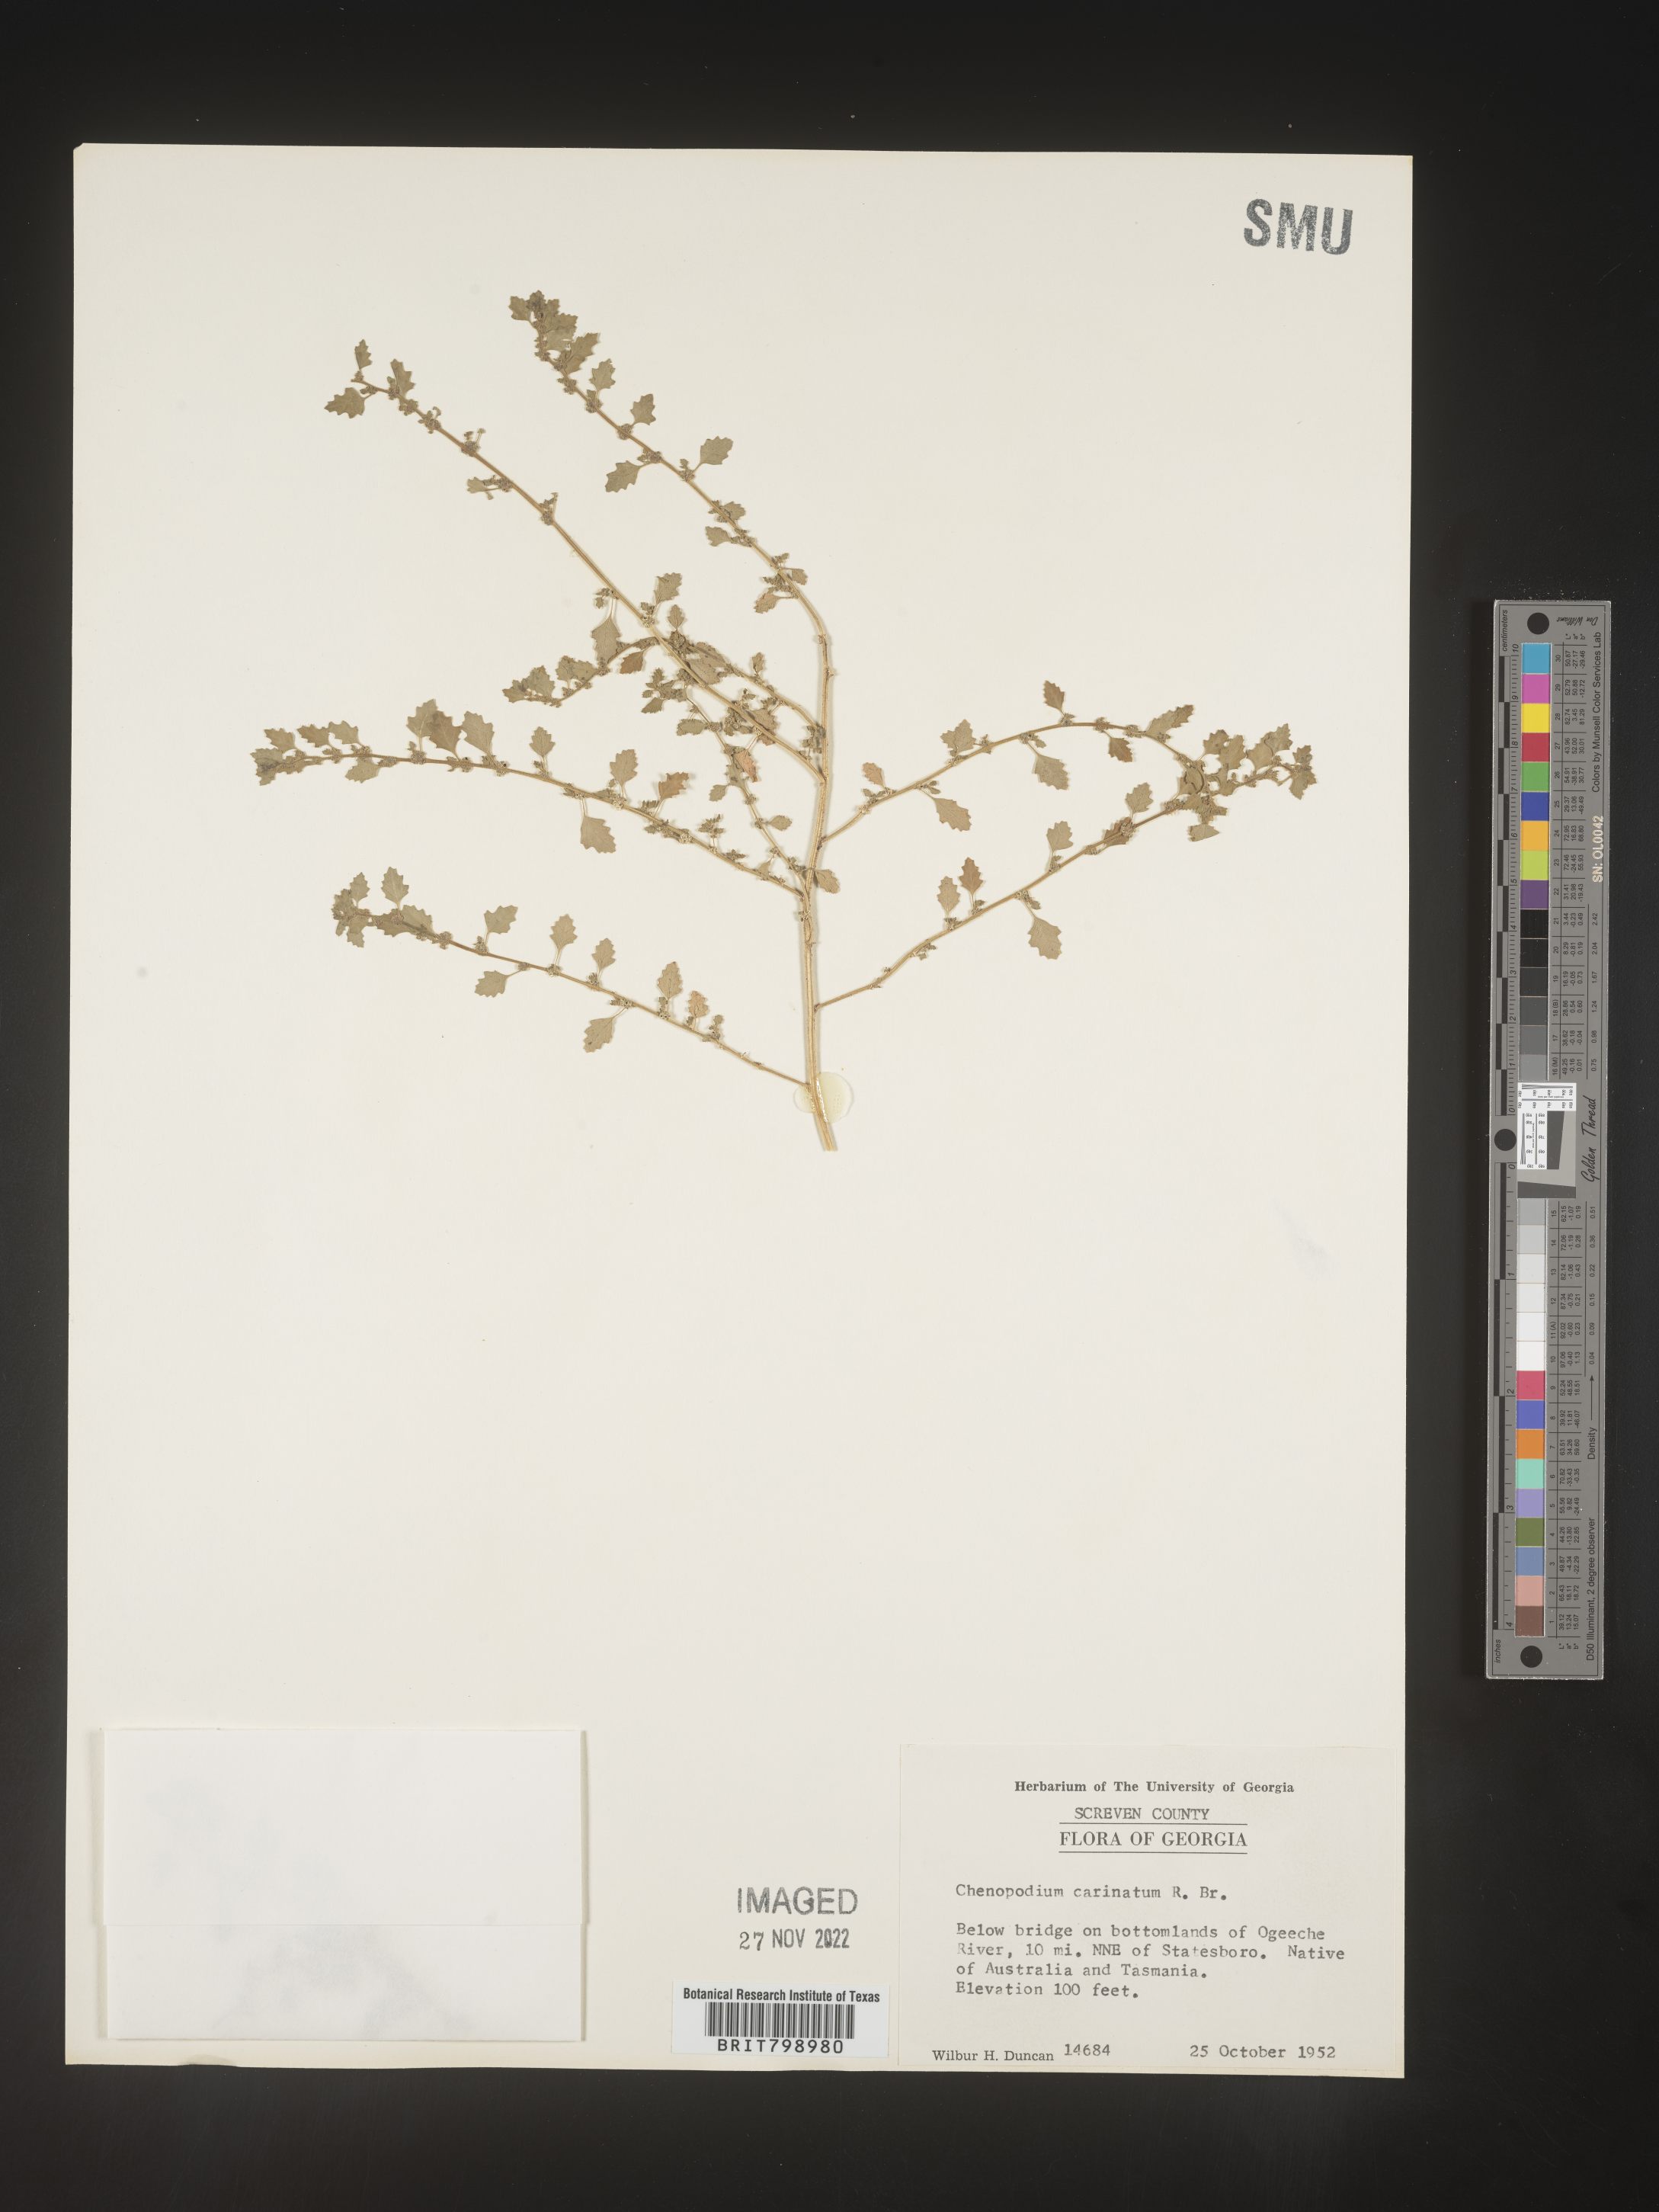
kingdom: Plantae
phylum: Tracheophyta
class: Magnoliopsida
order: Caryophyllales
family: Amaranthaceae
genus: Dysphania
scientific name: Dysphania pumilio
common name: Clammy goosefoot
